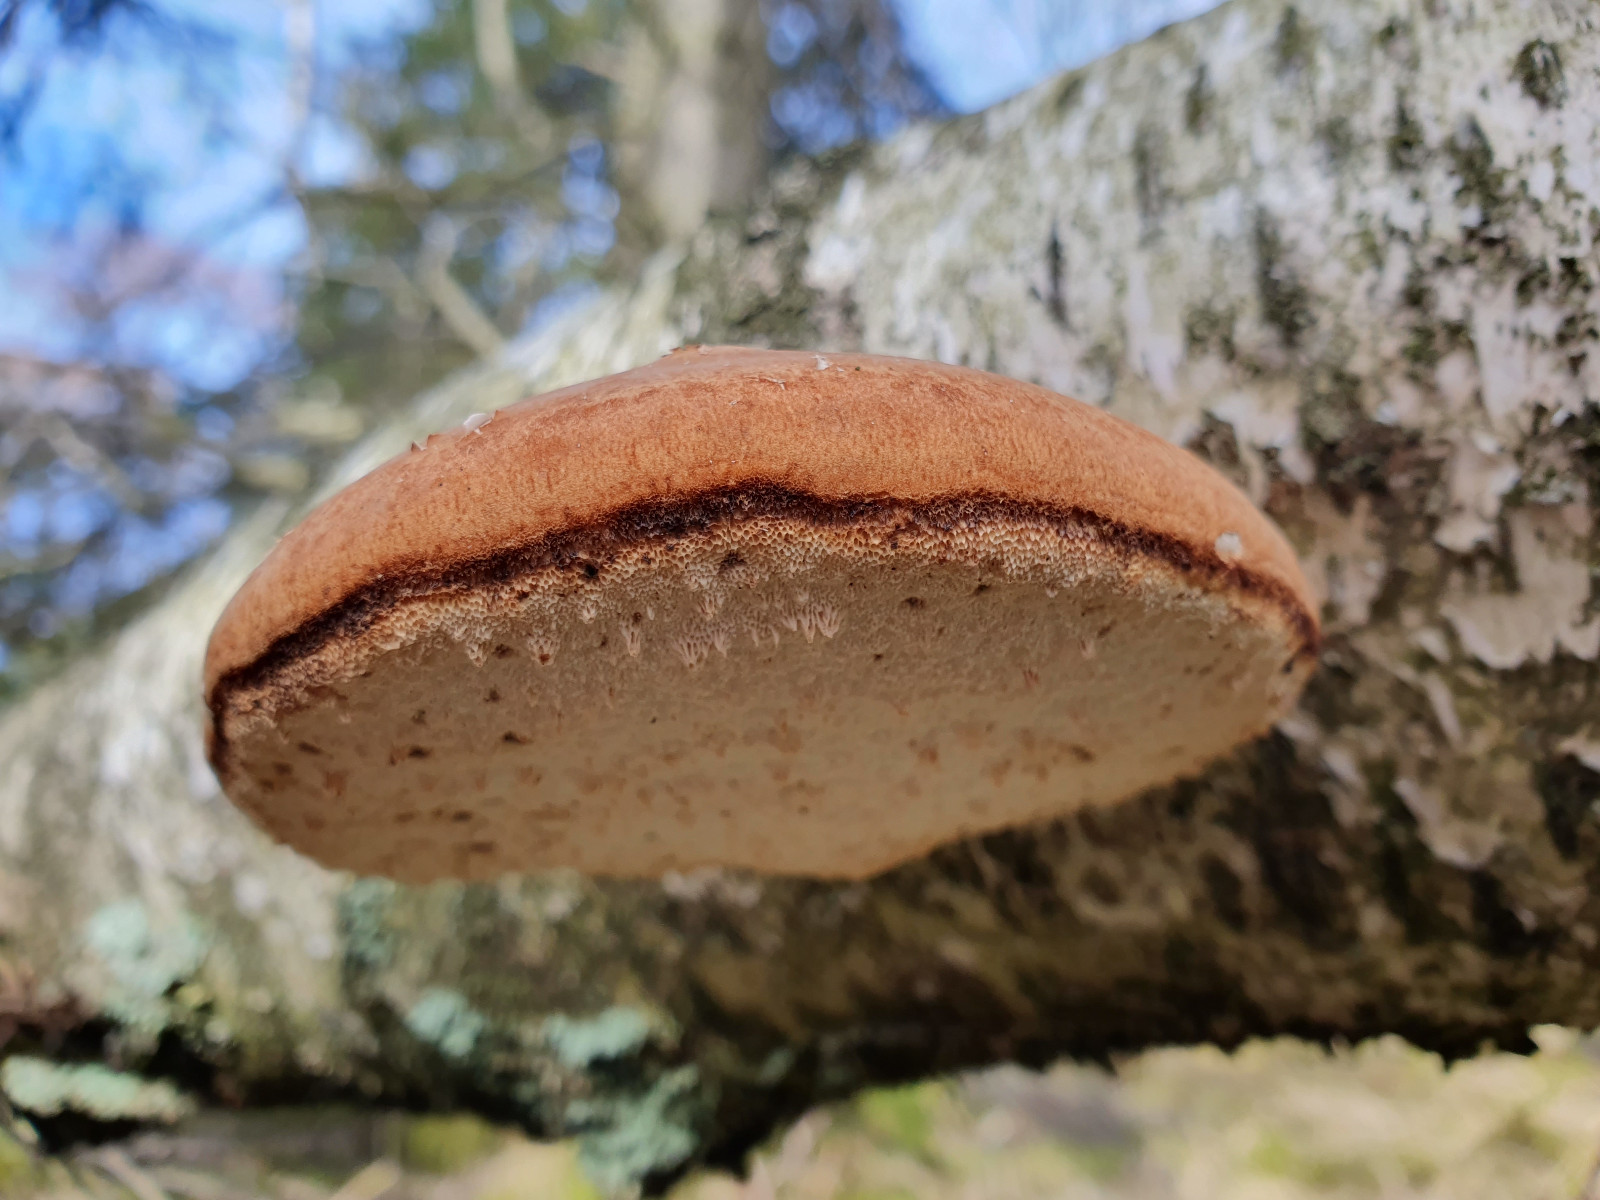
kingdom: Fungi
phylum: Basidiomycota
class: Agaricomycetes
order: Polyporales
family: Fomitopsidaceae
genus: Fomitopsis
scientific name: Fomitopsis betulina
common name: birkeporesvamp
